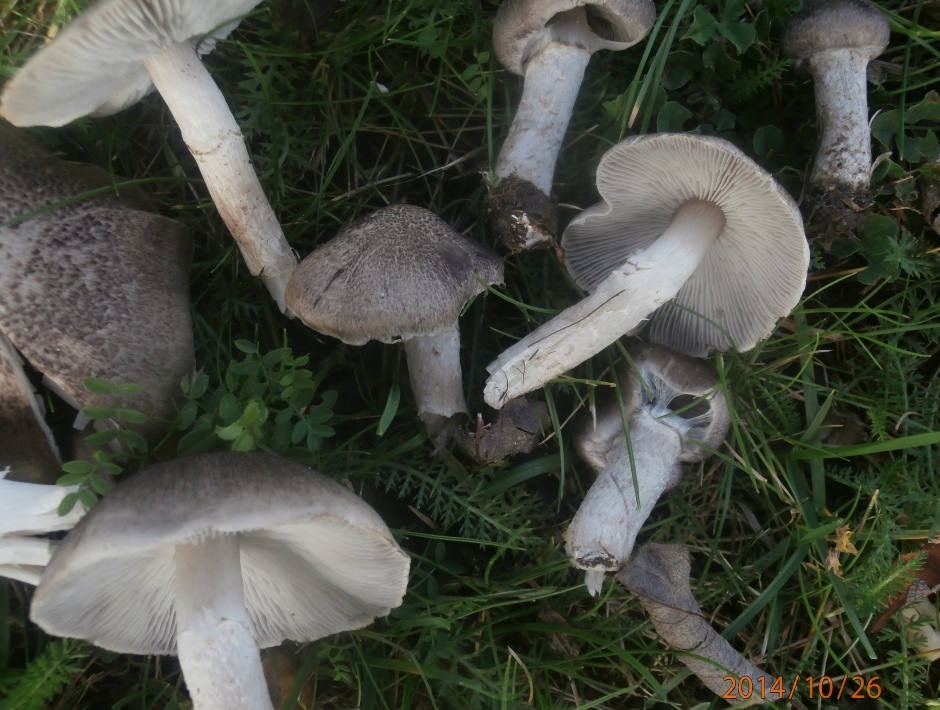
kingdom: Fungi
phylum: Basidiomycota
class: Agaricomycetes
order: Agaricales
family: Tricholomataceae
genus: Tricholoma
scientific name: Tricholoma argyraceum
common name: slør-ridderhat
